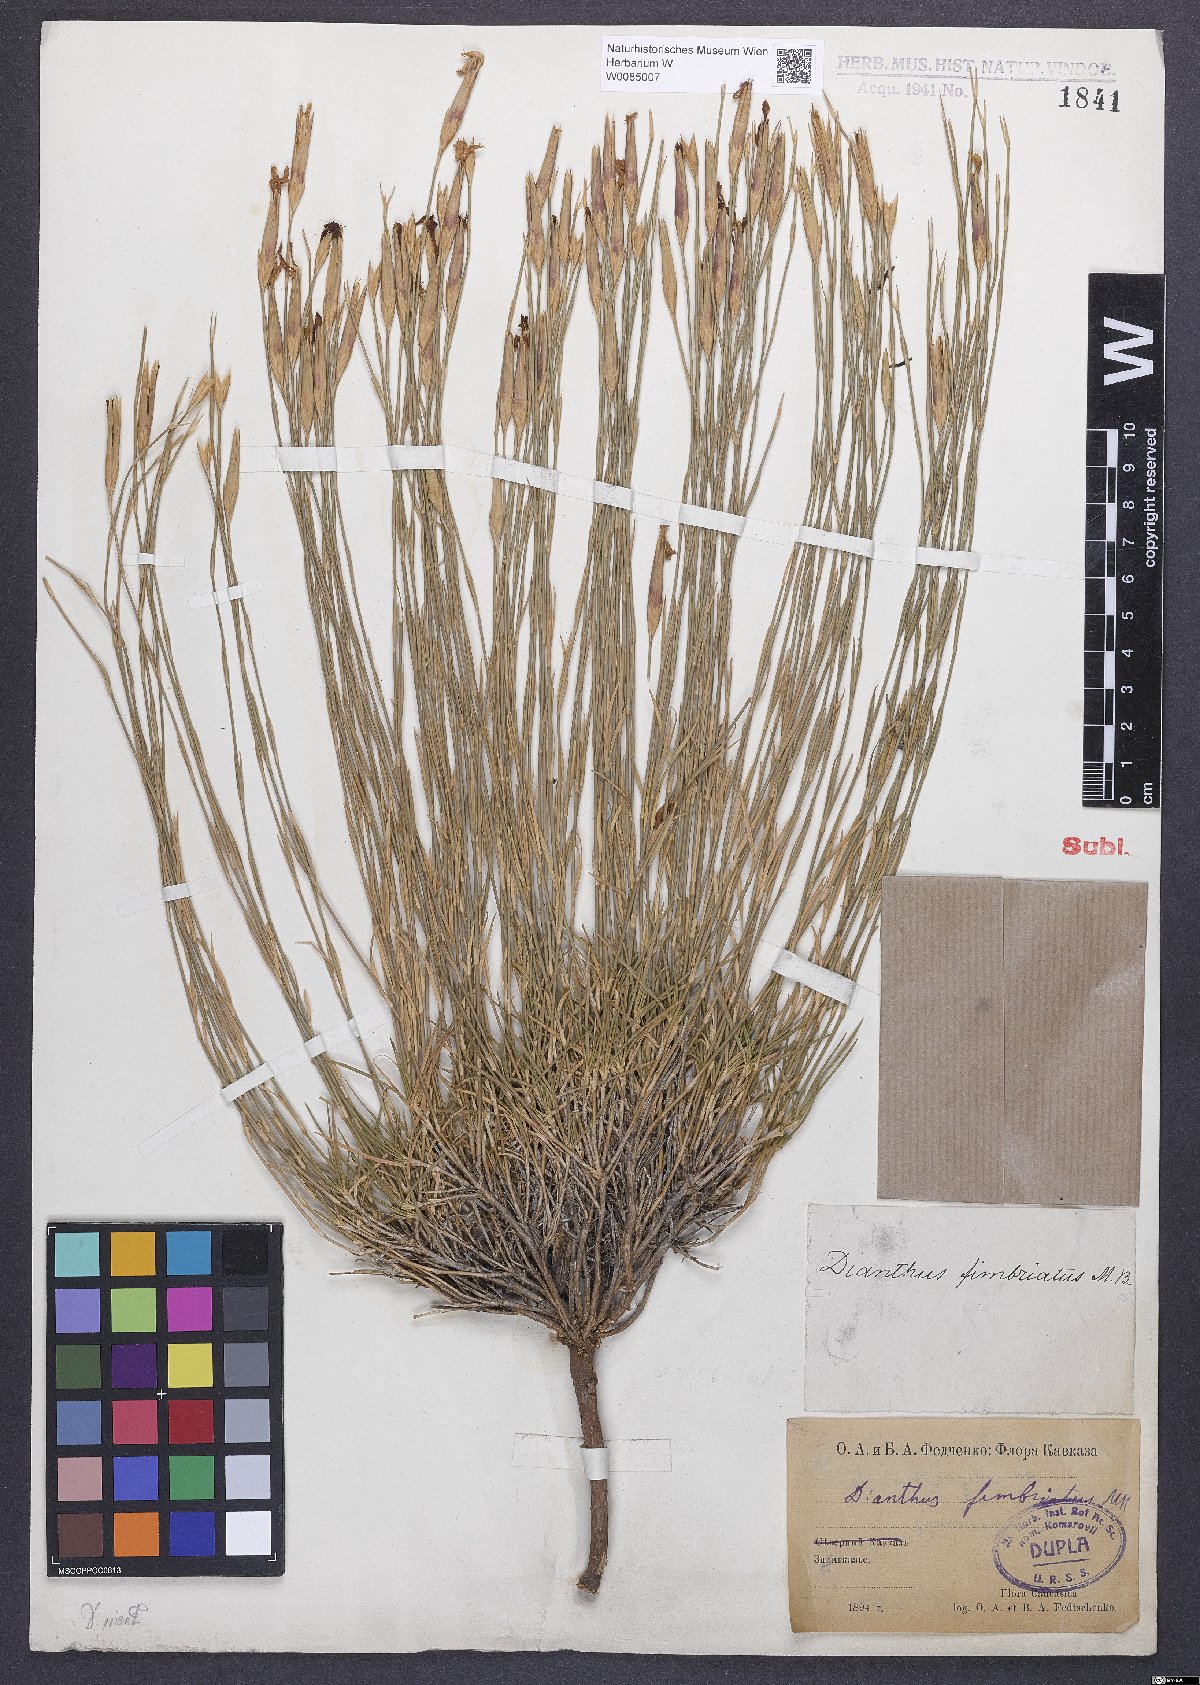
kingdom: Plantae
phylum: Tracheophyta
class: Magnoliopsida
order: Caryophyllales
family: Caryophyllaceae
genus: Dianthus
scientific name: Dianthus broteri
